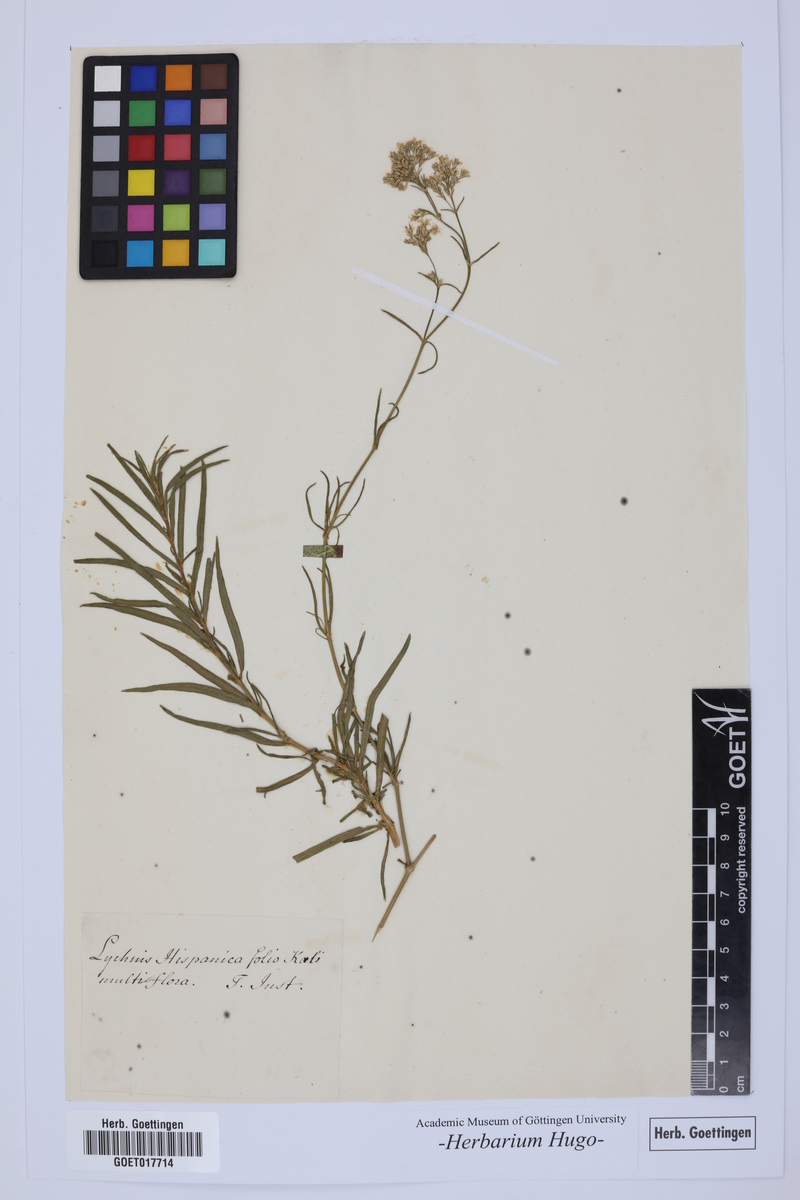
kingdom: Plantae
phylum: Tracheophyta
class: Magnoliopsida
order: Caryophyllales
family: Caryophyllaceae
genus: Silene
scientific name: Silene
